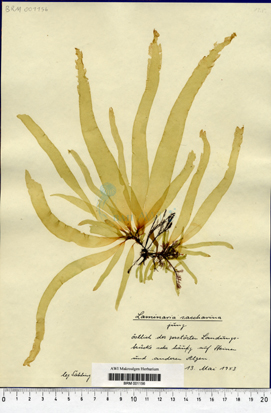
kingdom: Chromista
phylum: Ochrophyta
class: Phaeophyceae
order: Laminariales
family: Laminariaceae
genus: Saccharina
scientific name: Saccharina latissima
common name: Poor man's weather glass
